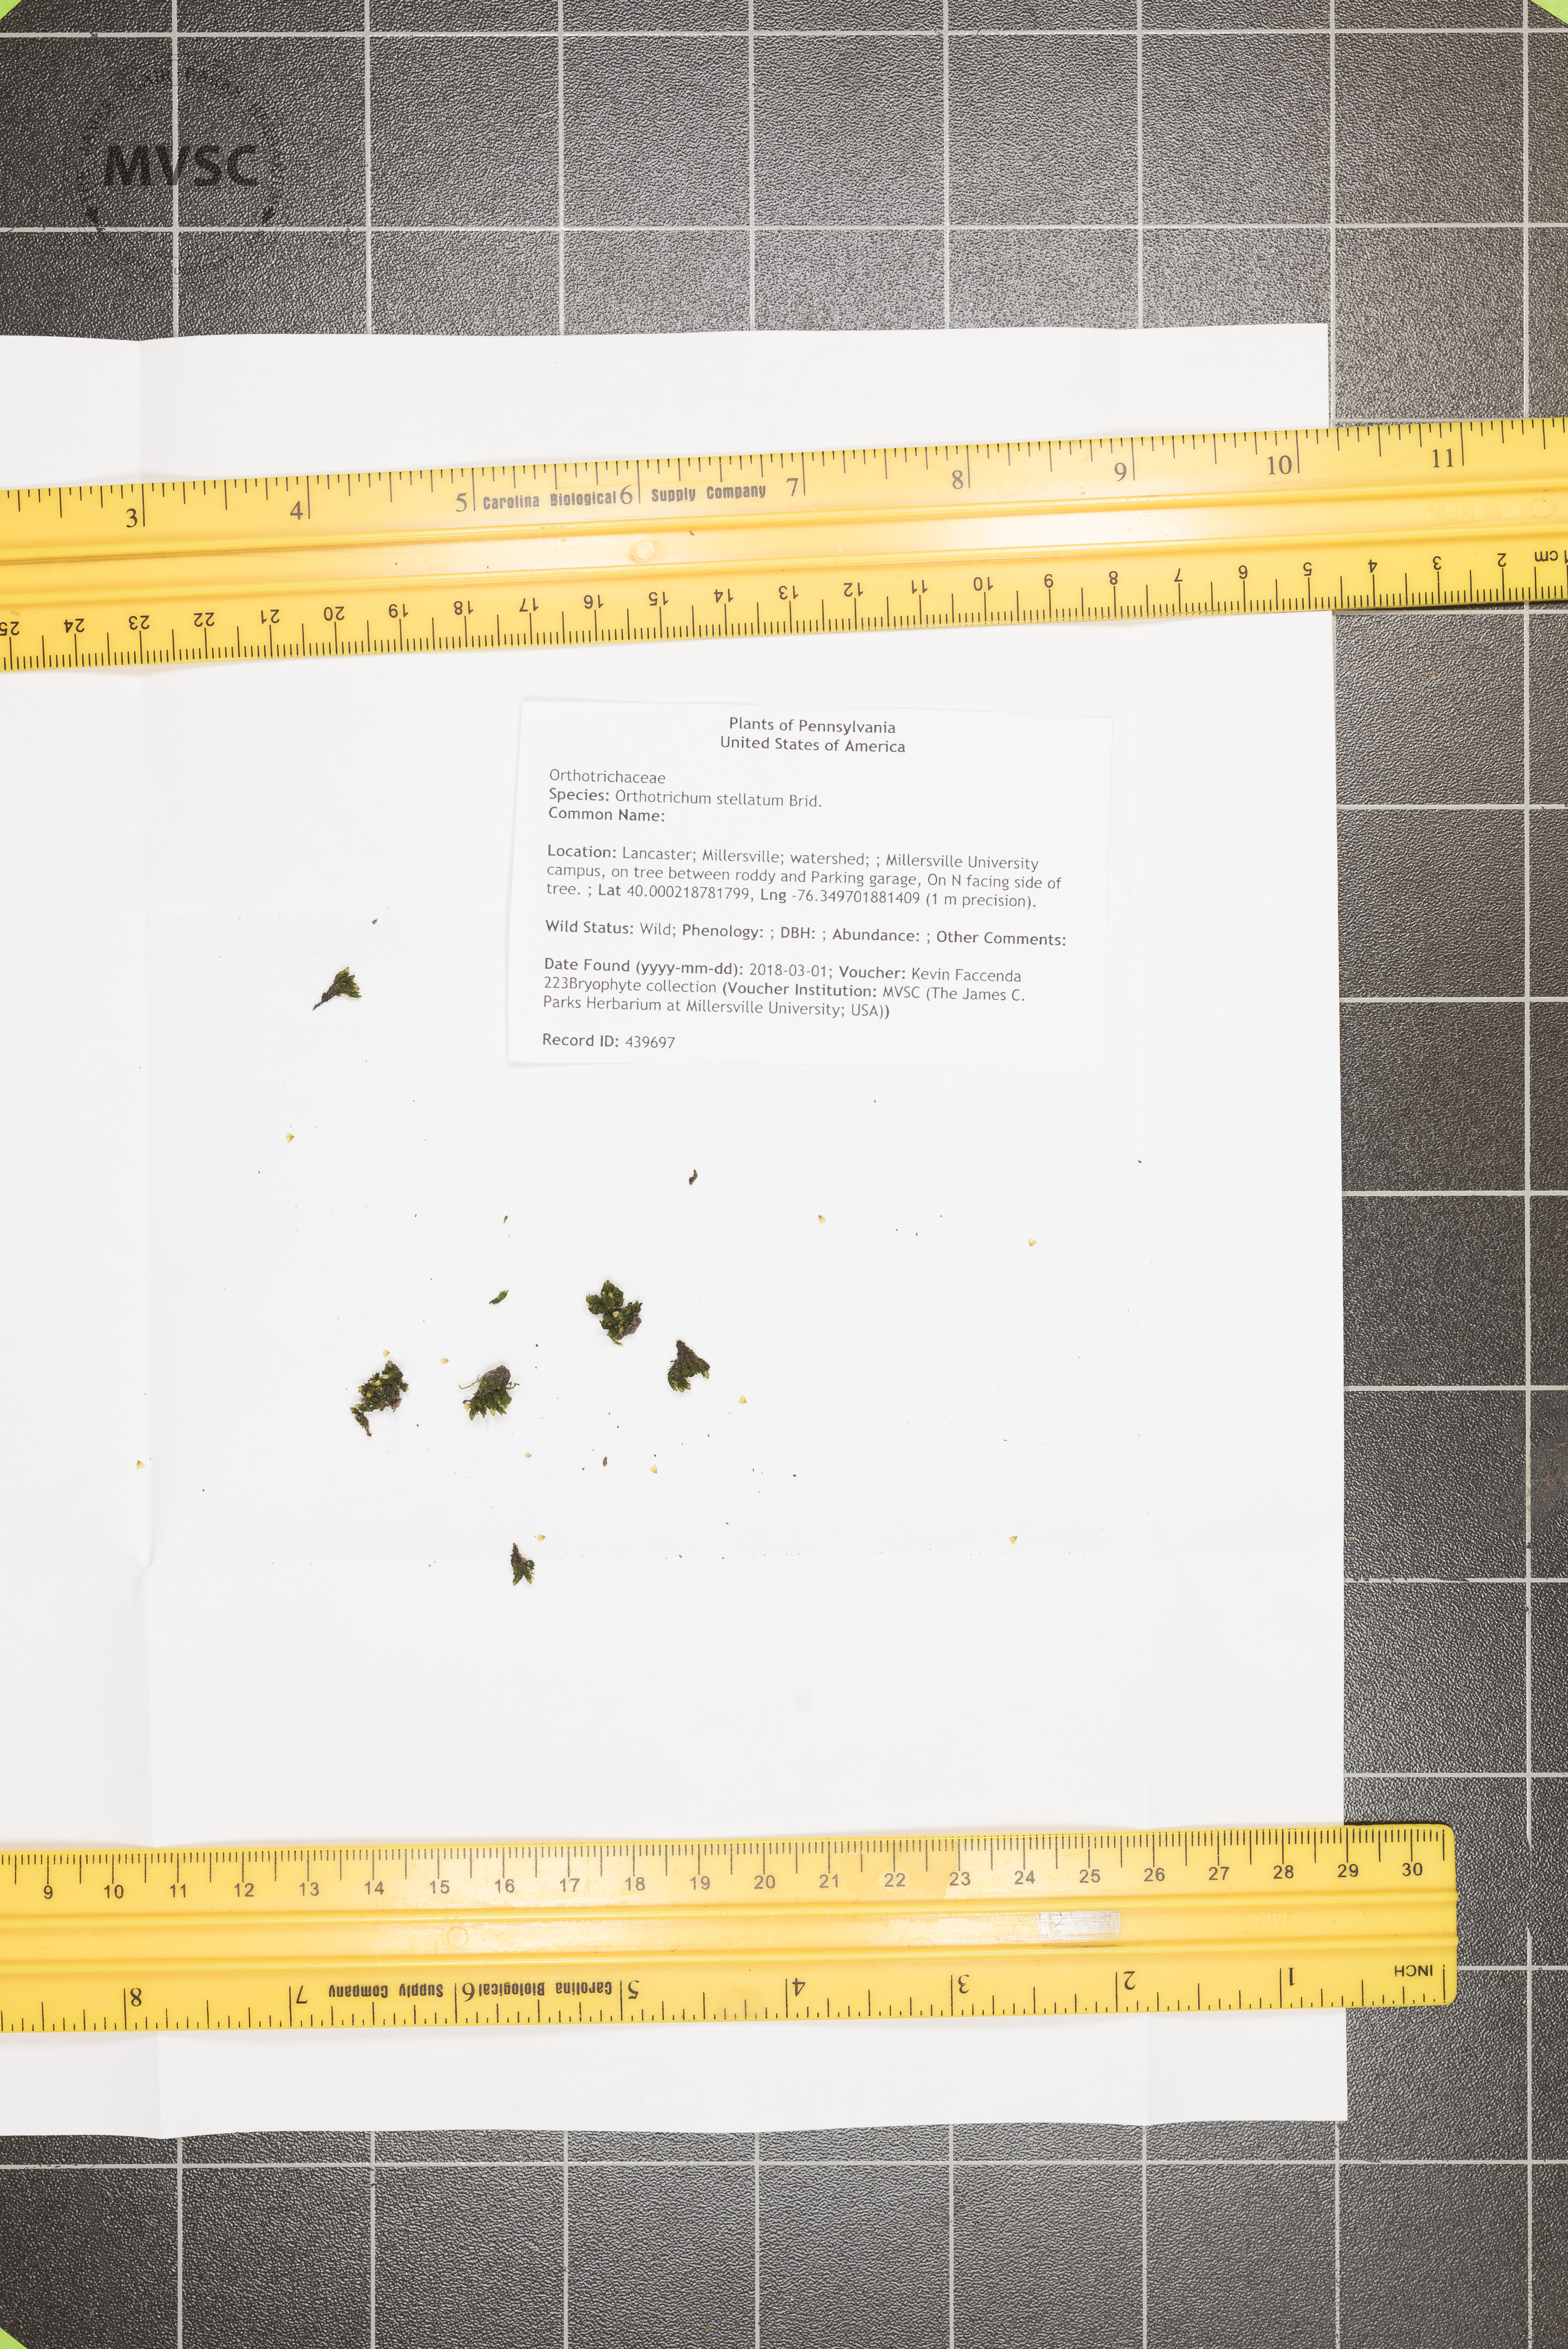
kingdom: Plantae
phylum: Bryophyta
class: Bryopsida
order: Orthotrichales
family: Orthotrichaceae
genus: Orthotrichum
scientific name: Orthotrichum stellatum
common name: Starlike bristle moss
